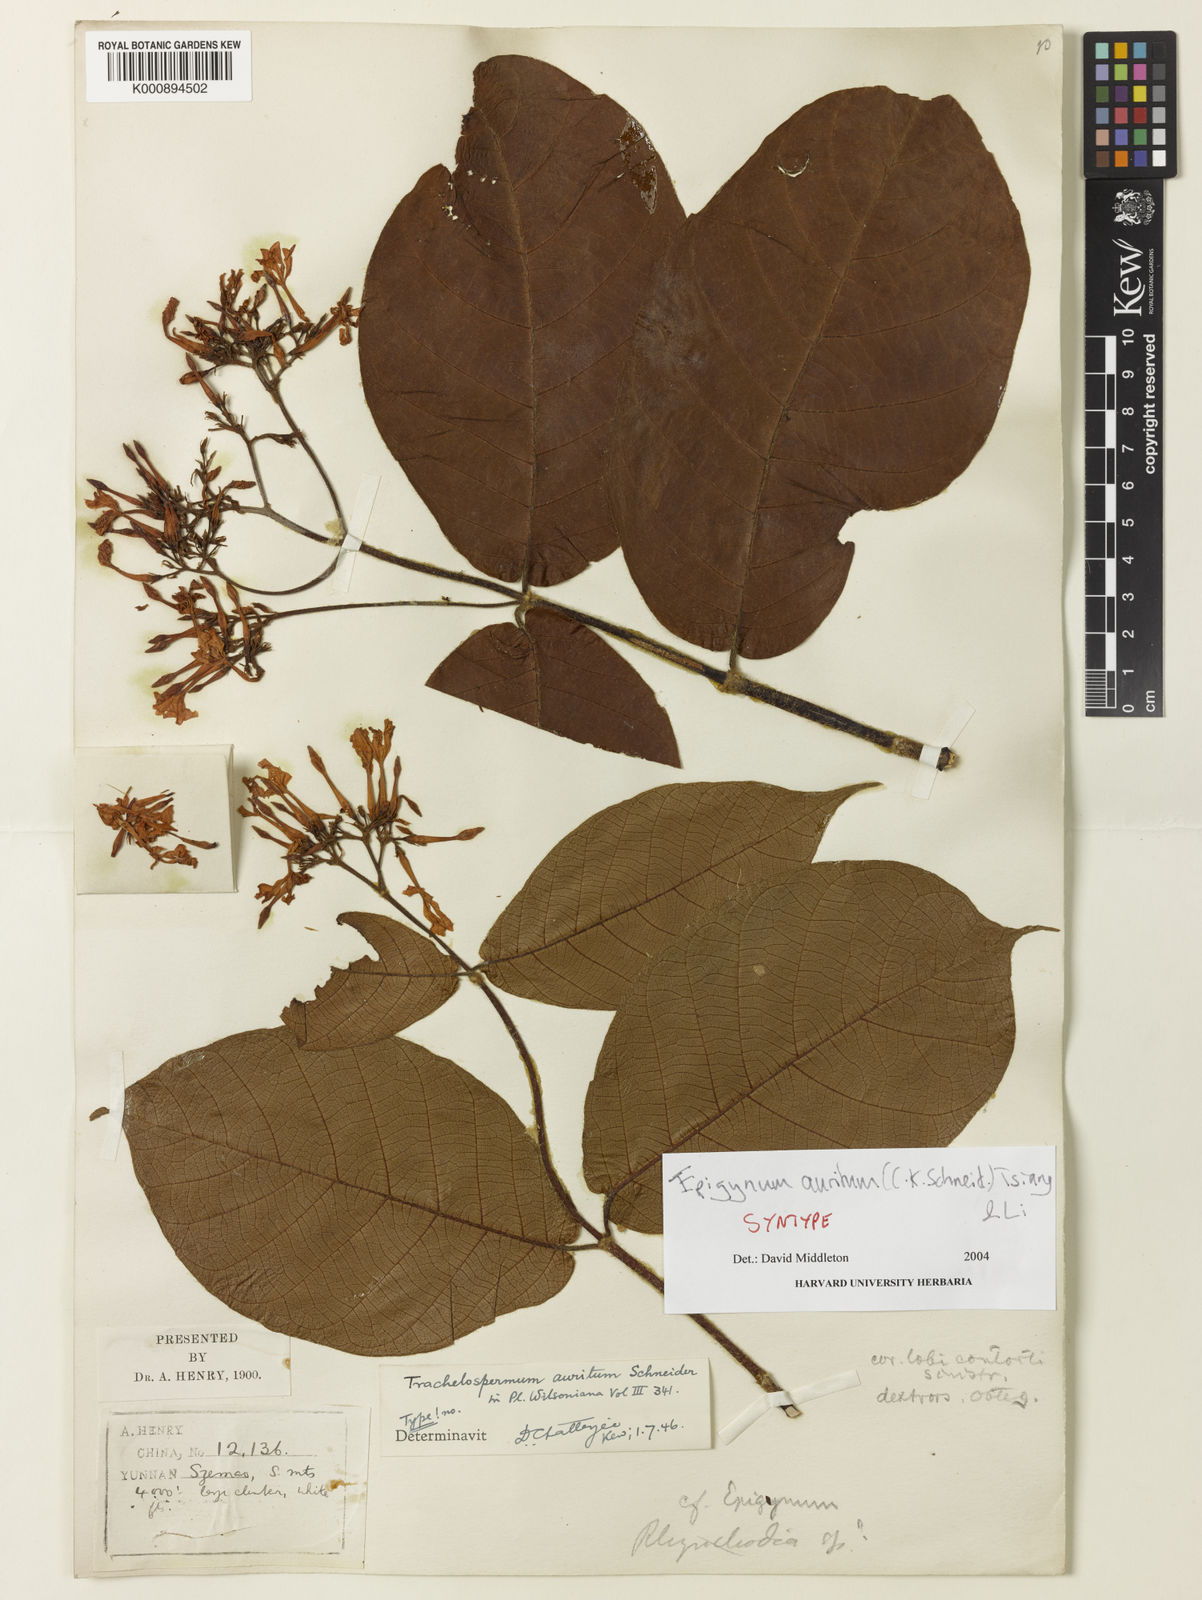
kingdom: Plantae
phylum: Tracheophyta
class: Magnoliopsida
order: Gentianales
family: Apocynaceae
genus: Epigynum
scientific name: Epigynum auritum
